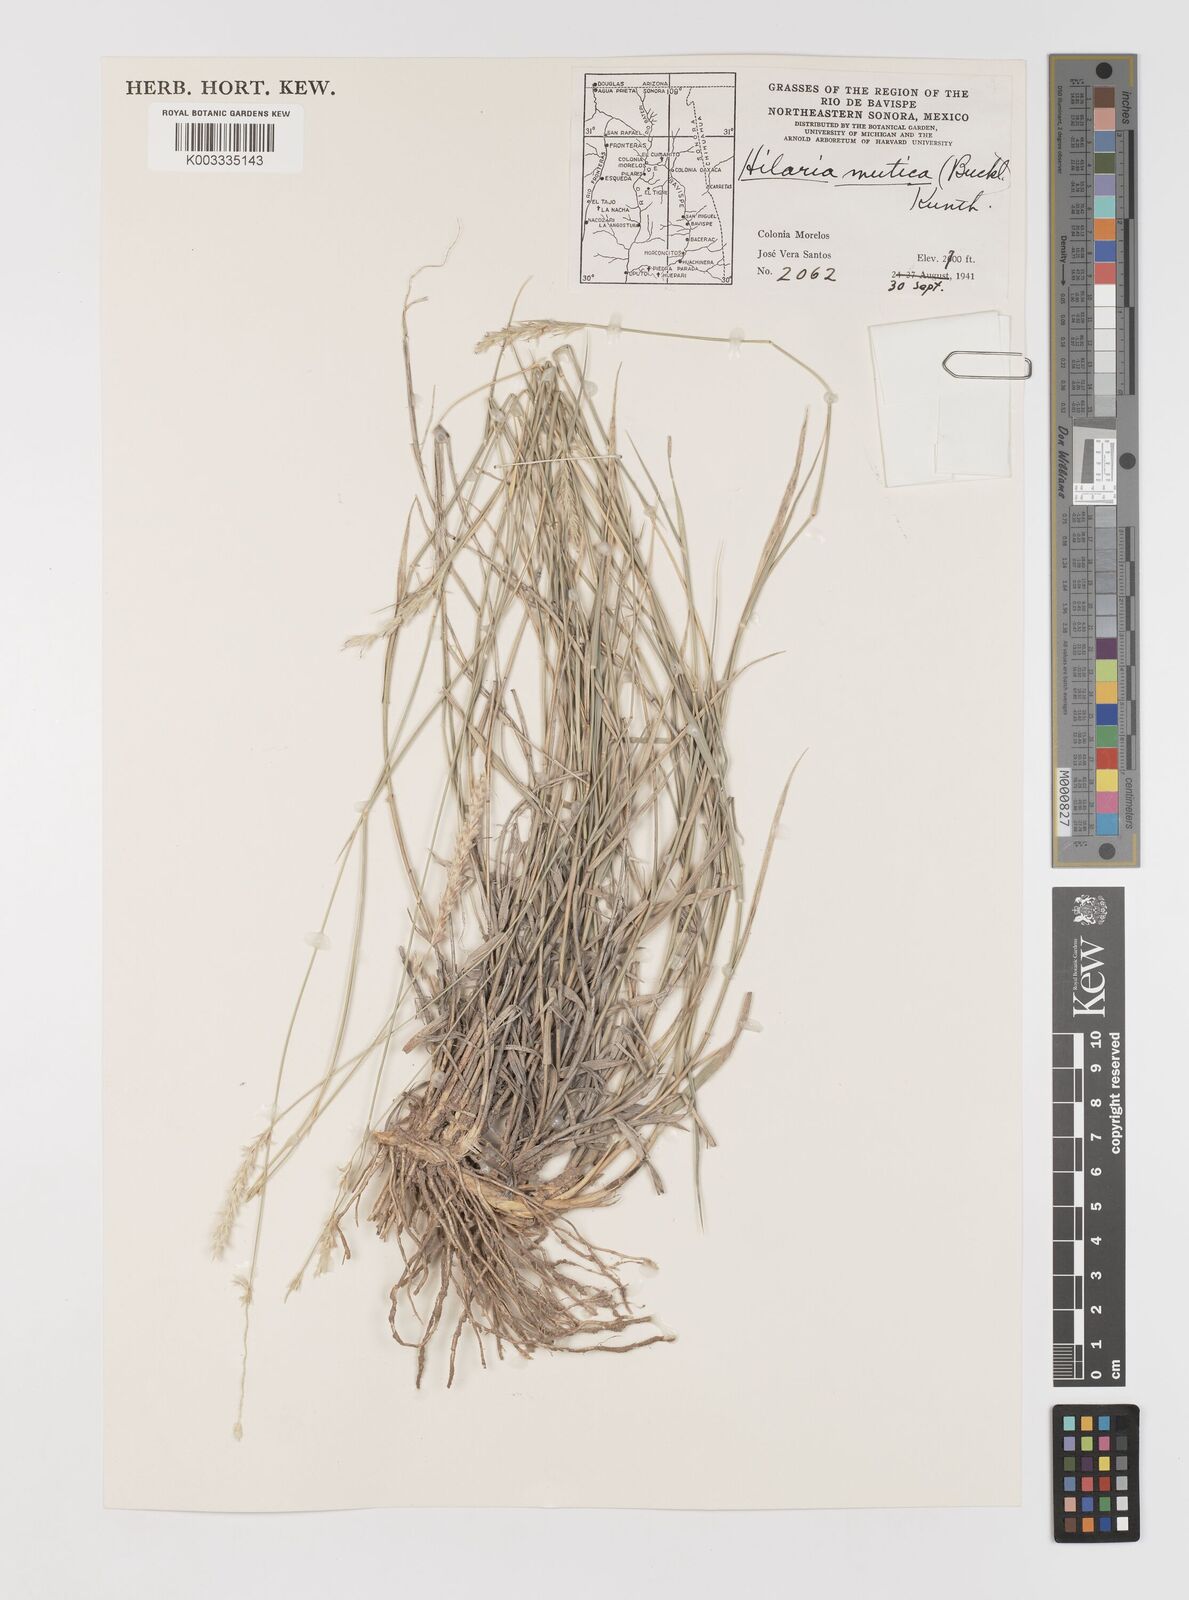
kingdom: Plantae
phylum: Tracheophyta
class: Liliopsida
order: Poales
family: Poaceae
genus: Hilaria
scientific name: Hilaria mutica
